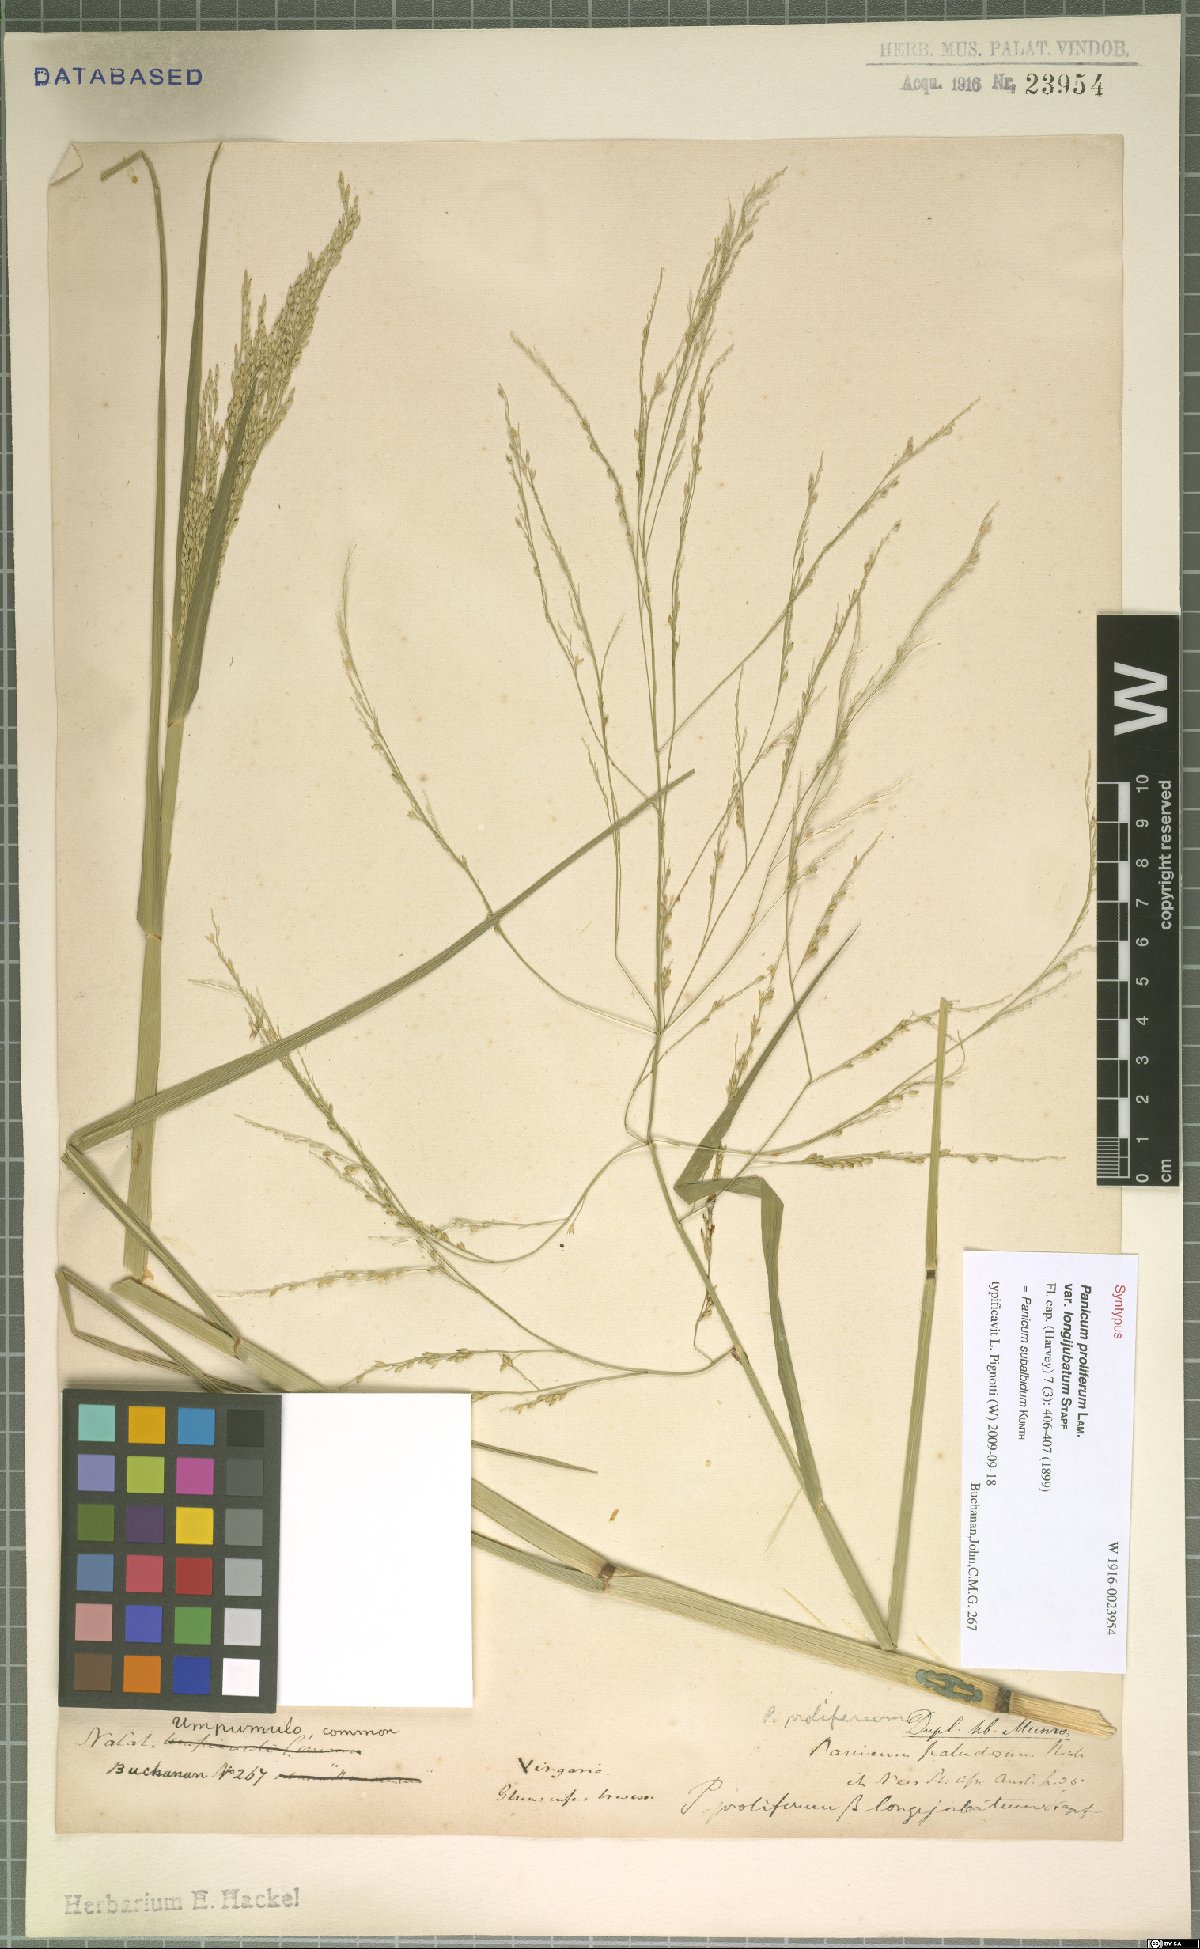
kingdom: Plantae
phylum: Tracheophyta
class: Liliopsida
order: Poales
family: Poaceae
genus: Panicum
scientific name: Panicum subalbidum
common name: Elbow buffalo grass
